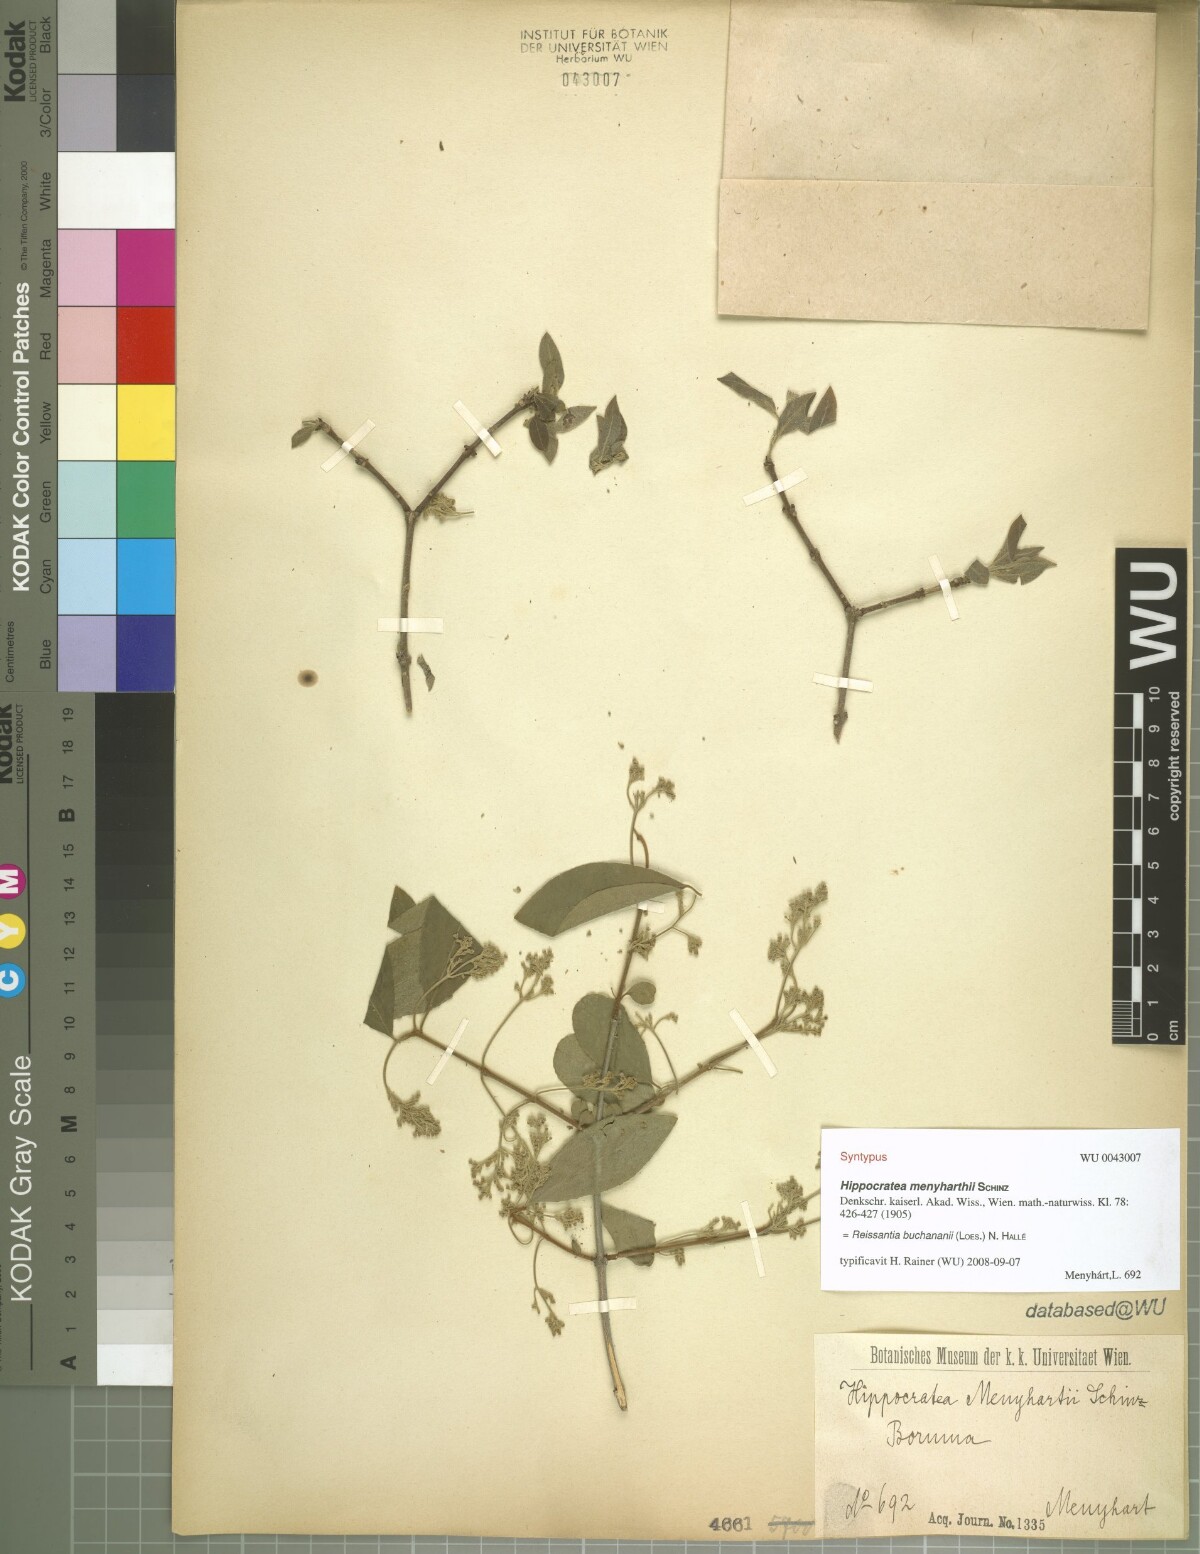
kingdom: Plantae
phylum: Tracheophyta
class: Magnoliopsida
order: Celastrales
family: Celastraceae
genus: Reissantia
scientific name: Reissantia buchananii
